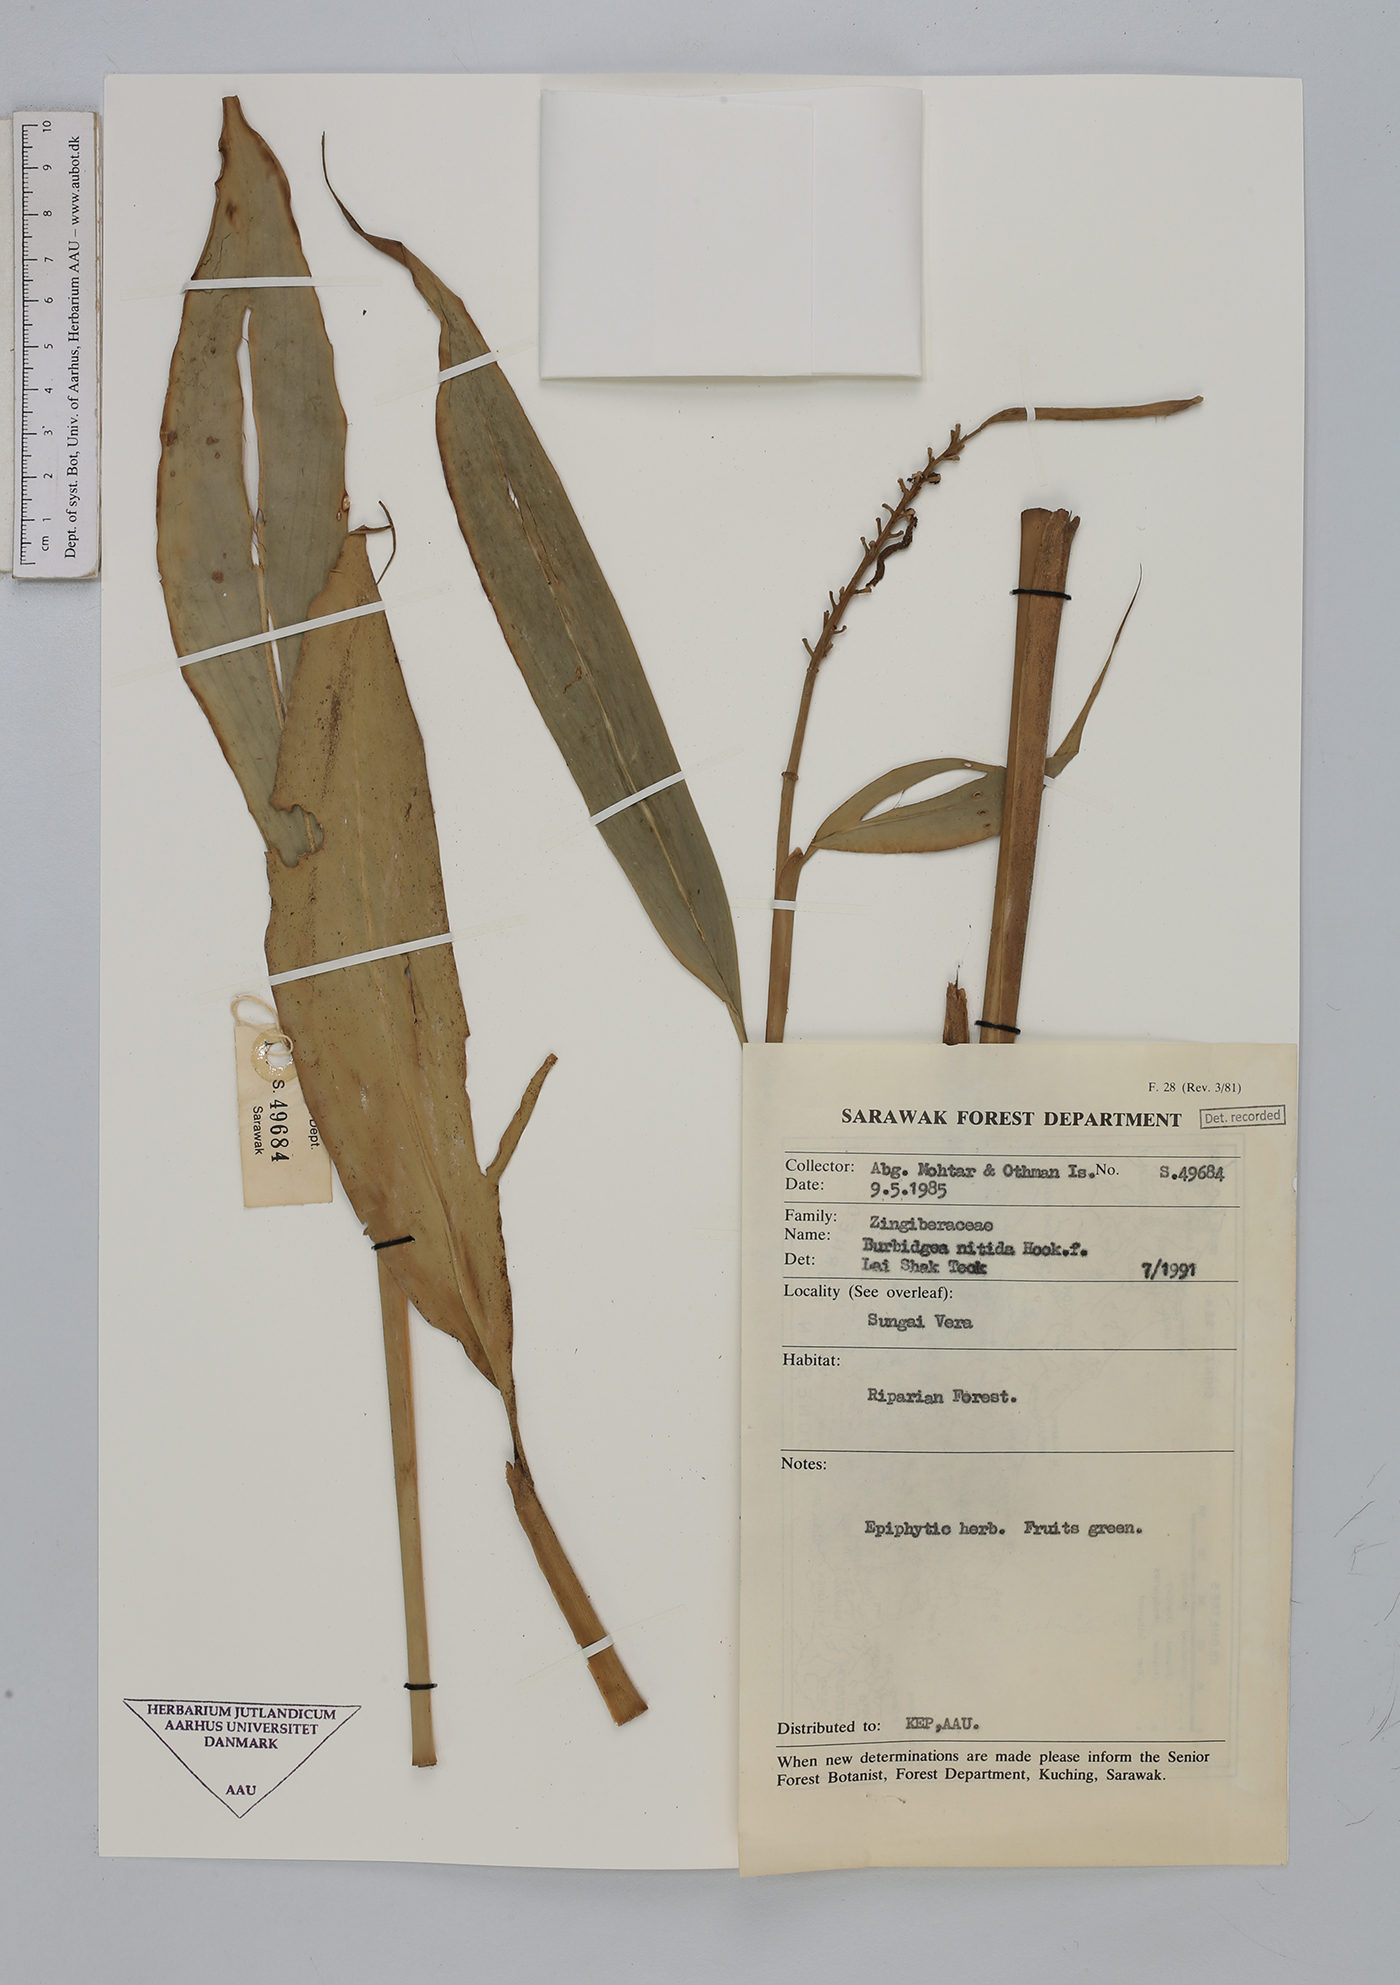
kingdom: Plantae
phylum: Tracheophyta
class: Liliopsida
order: Zingiberales
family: Zingiberaceae
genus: Burbidgea
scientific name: Burbidgea nitida
